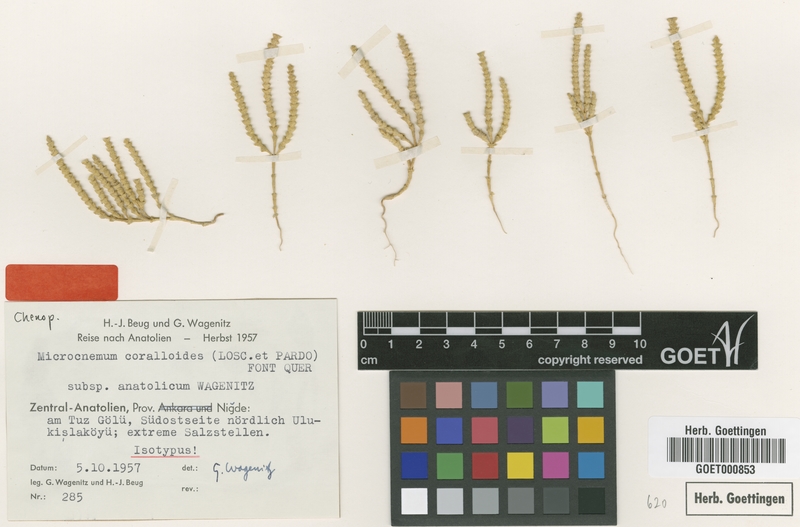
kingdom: Plantae
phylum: Tracheophyta
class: Magnoliopsida
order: Caryophyllales
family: Amaranthaceae
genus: Microcnemum
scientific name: Microcnemum coralloides
